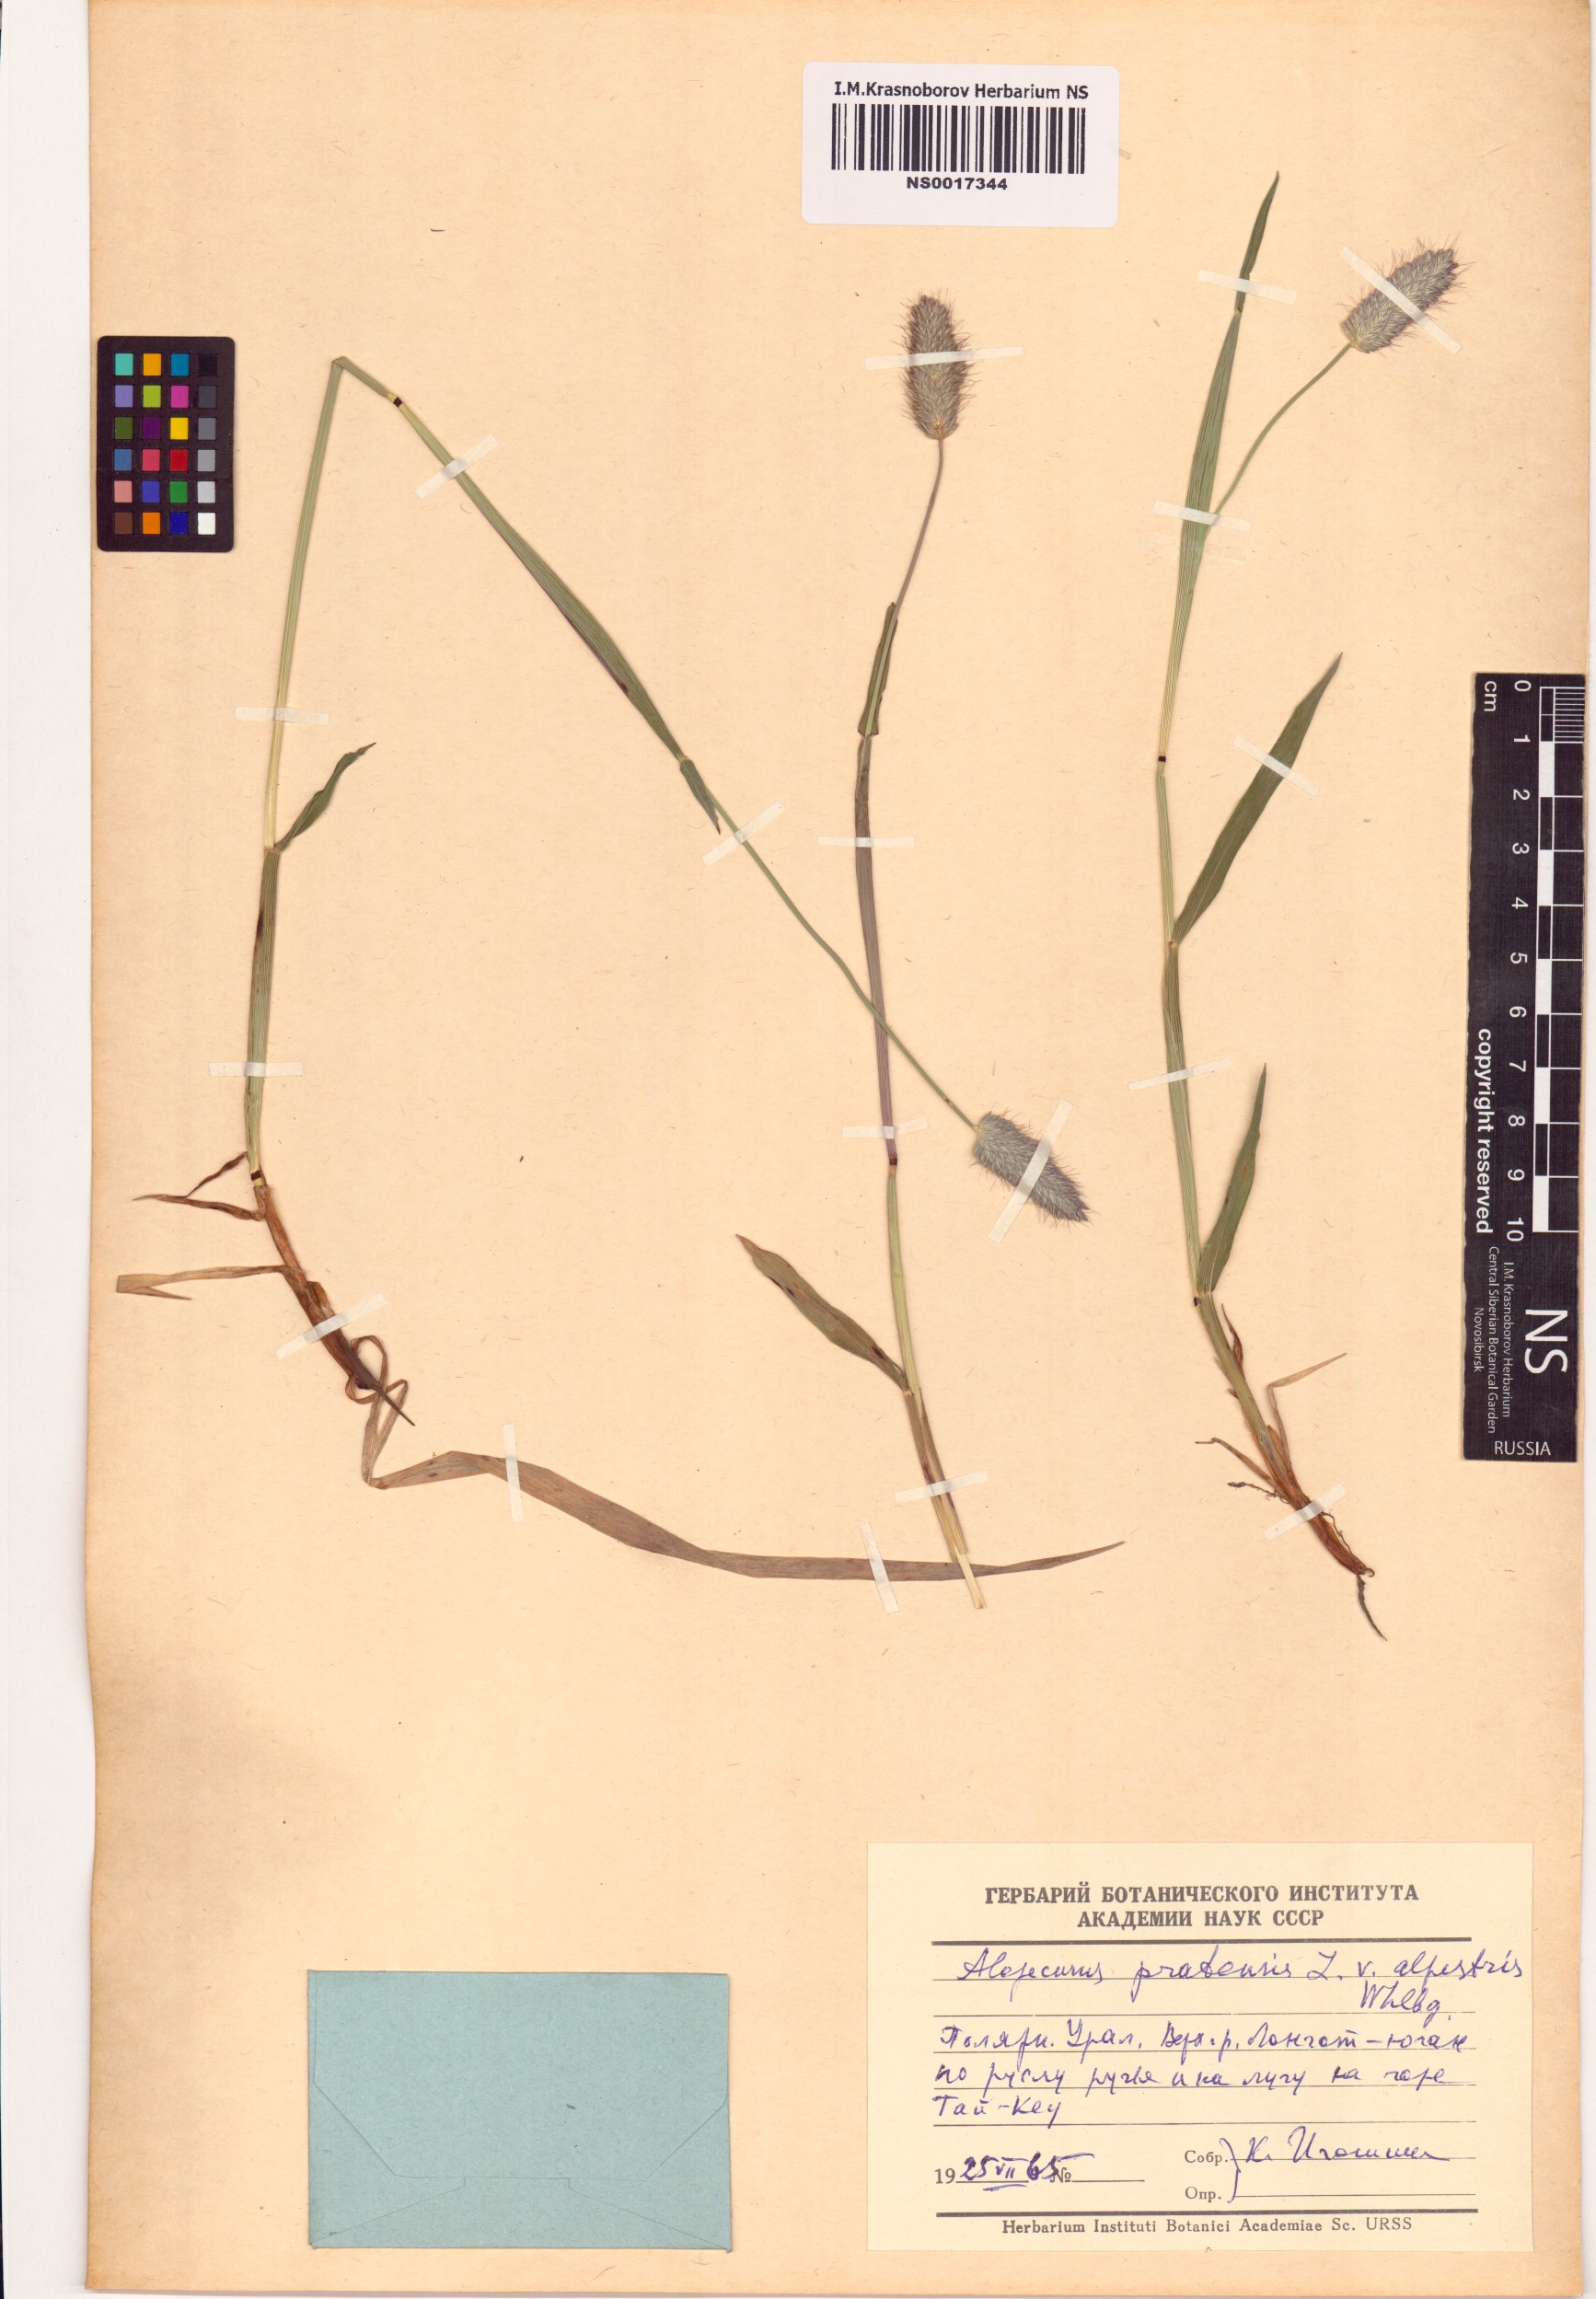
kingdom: Plantae
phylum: Tracheophyta
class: Liliopsida
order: Poales
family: Poaceae
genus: Alopecurus
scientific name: Alopecurus pratensis
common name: Meadow foxtail
